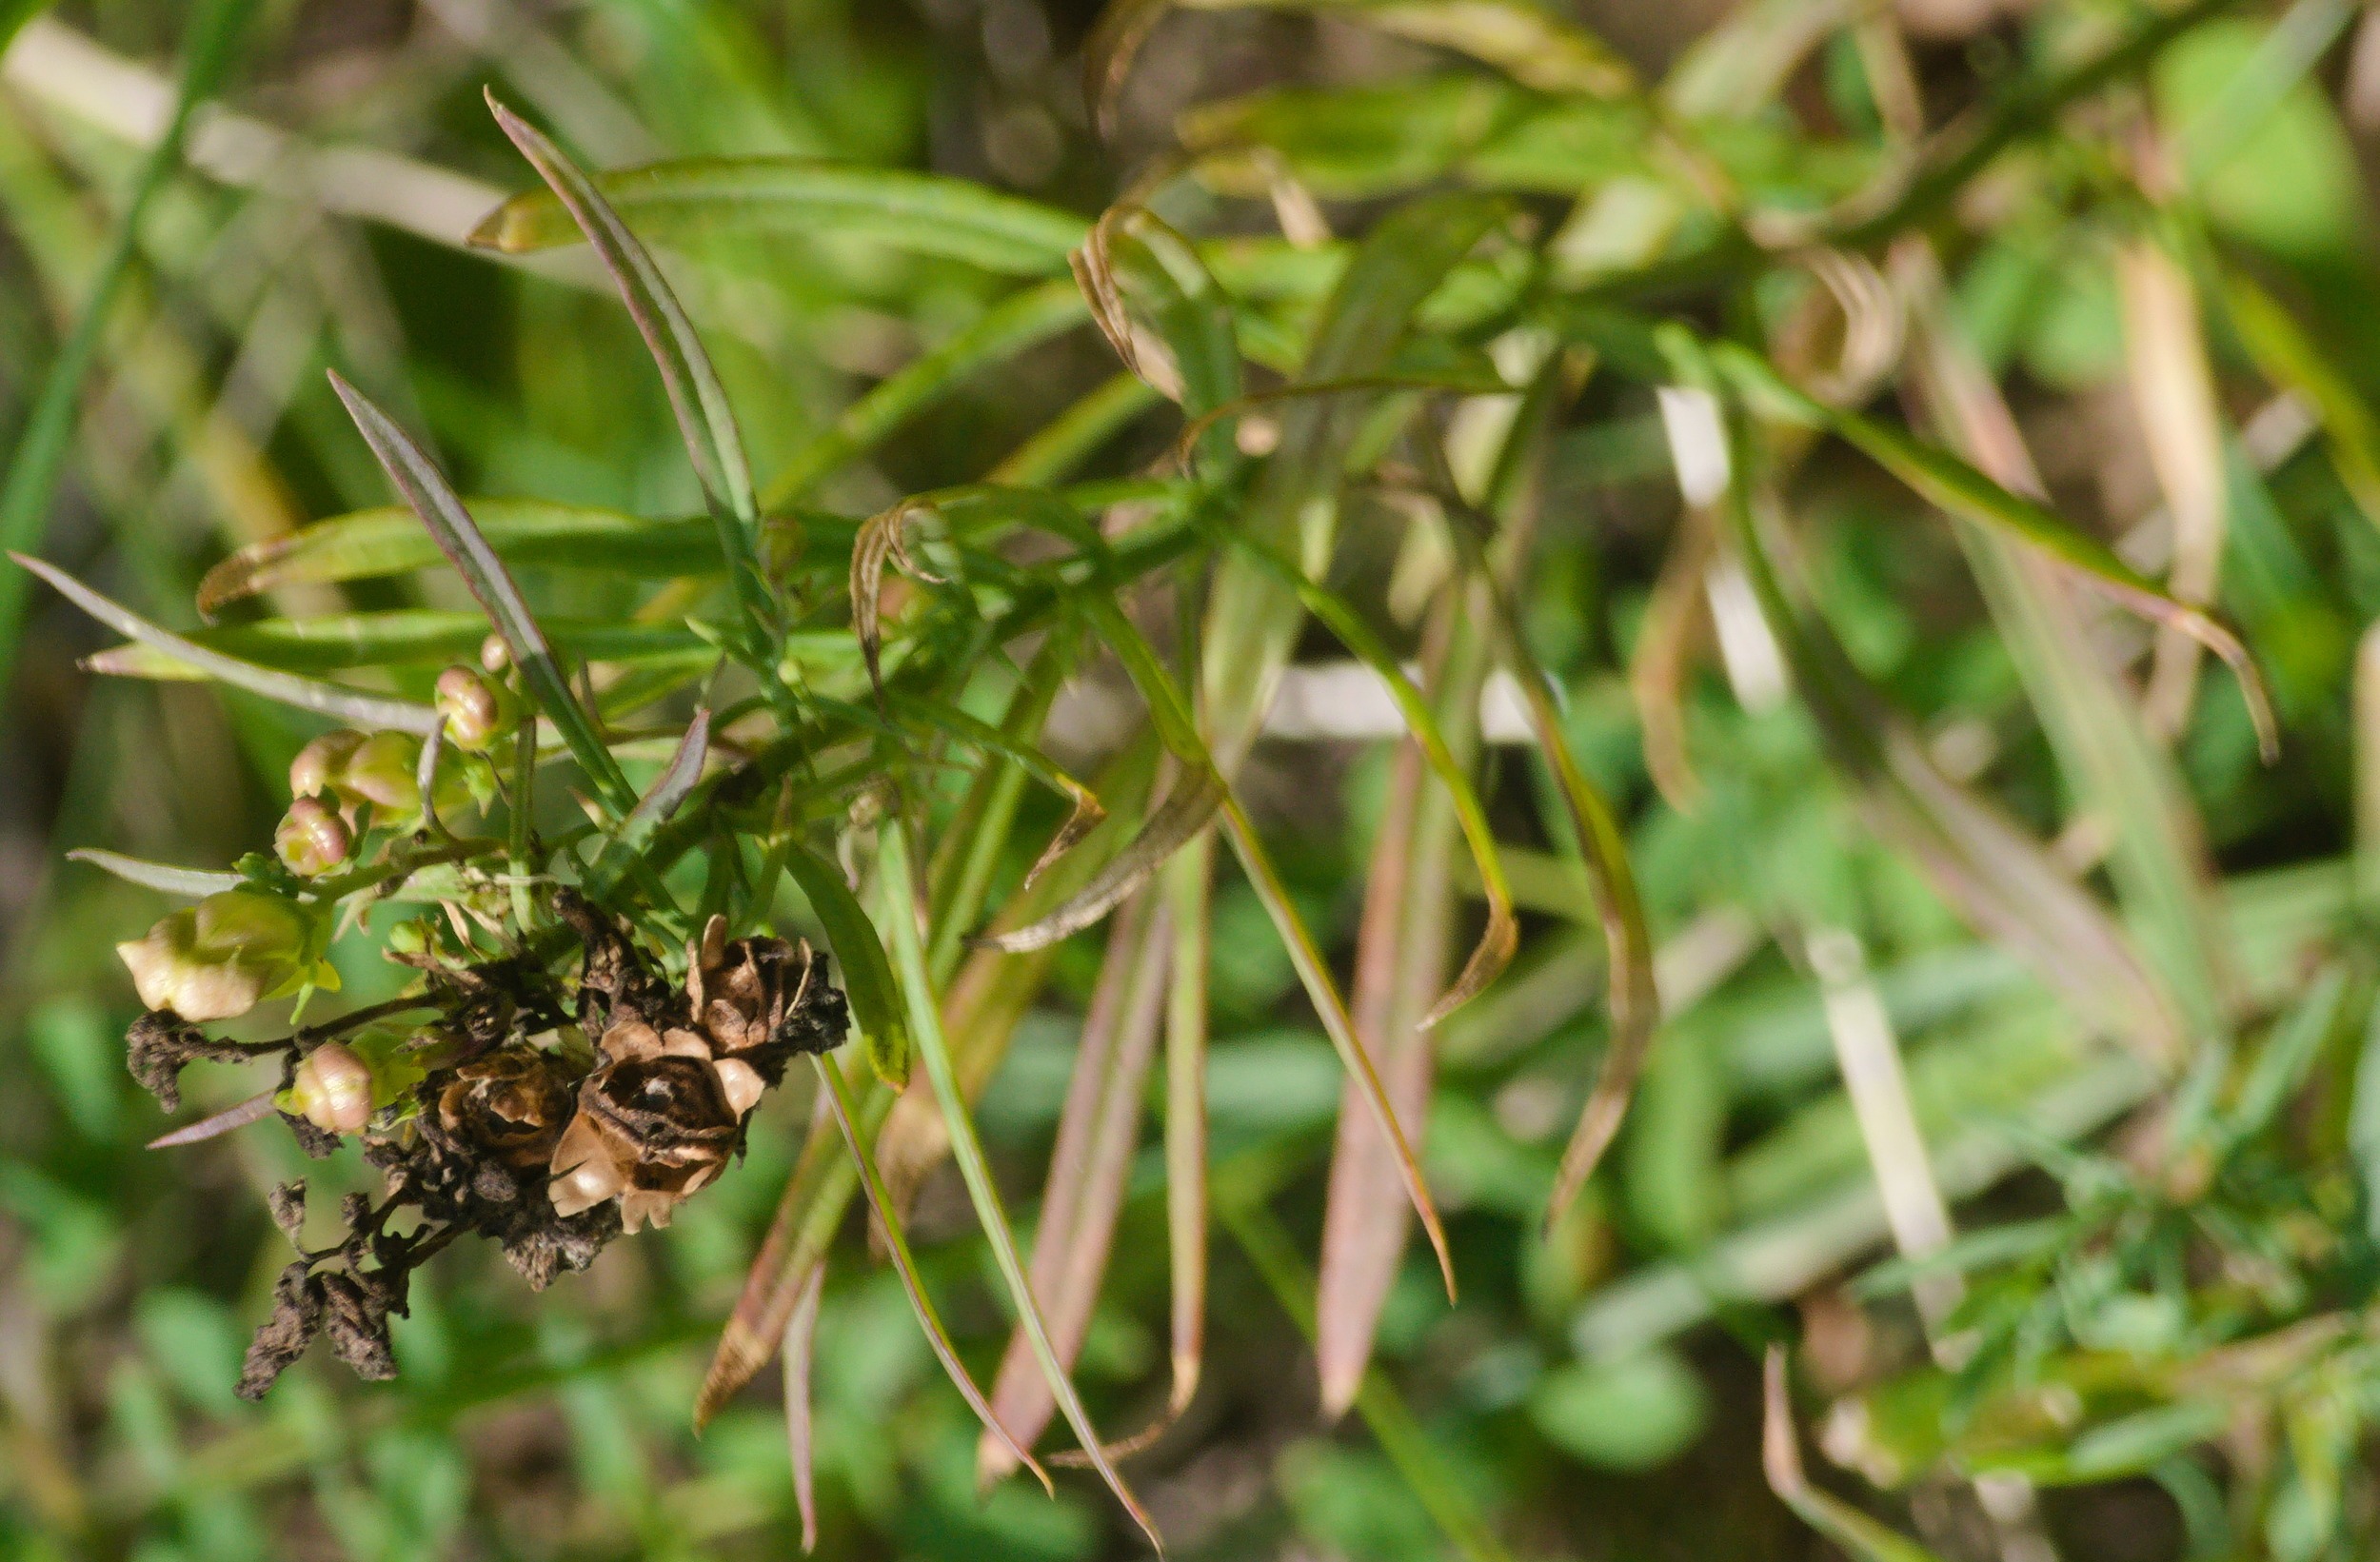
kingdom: Plantae
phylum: Tracheophyta
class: Magnoliopsida
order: Lamiales
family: Plantaginaceae
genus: Linaria
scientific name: Linaria vulgaris
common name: Almindelig torskemund
